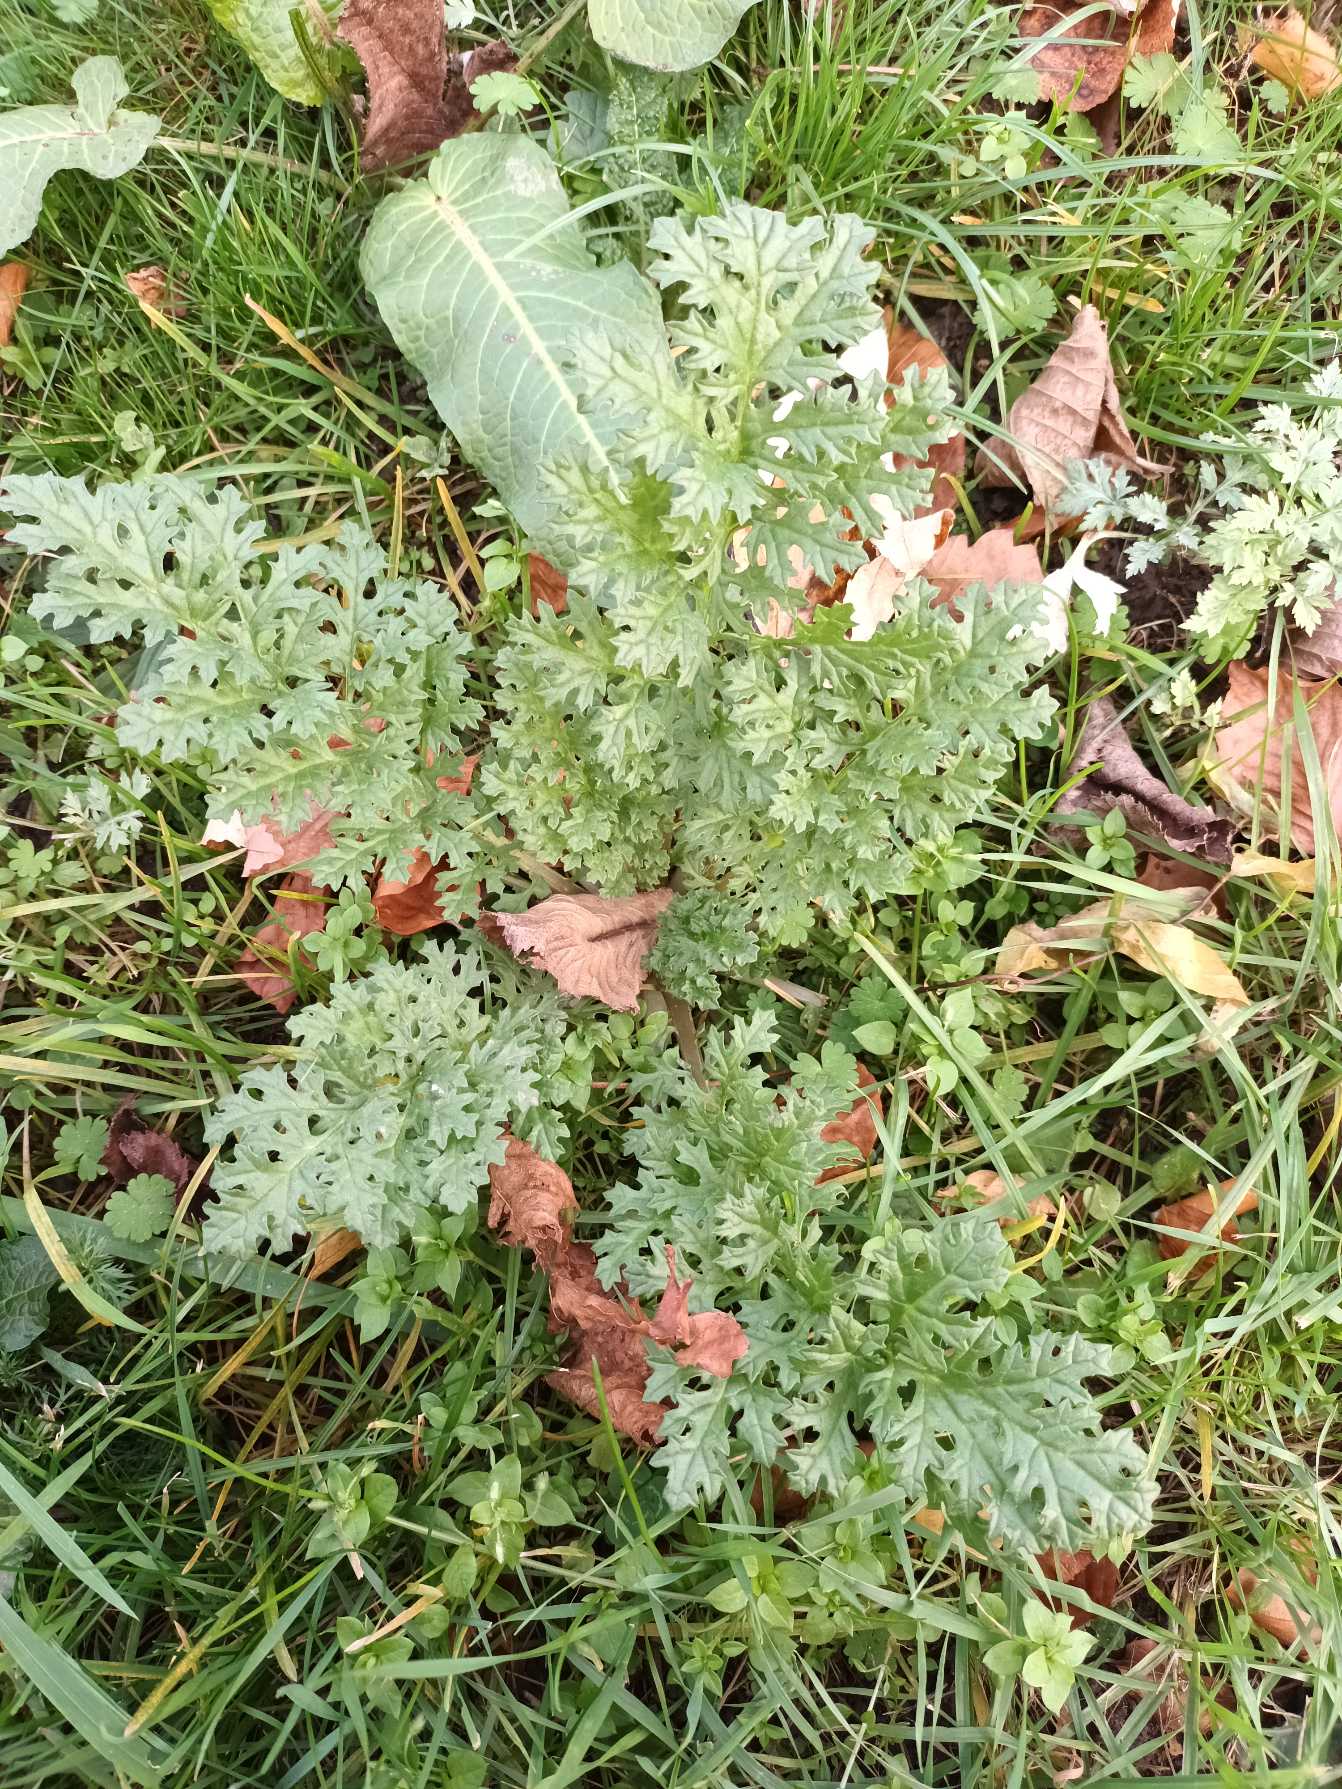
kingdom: Plantae
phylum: Tracheophyta
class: Magnoliopsida
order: Asterales
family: Asteraceae
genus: Jacobaea
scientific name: Jacobaea vulgaris
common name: Eng-brandbæger
